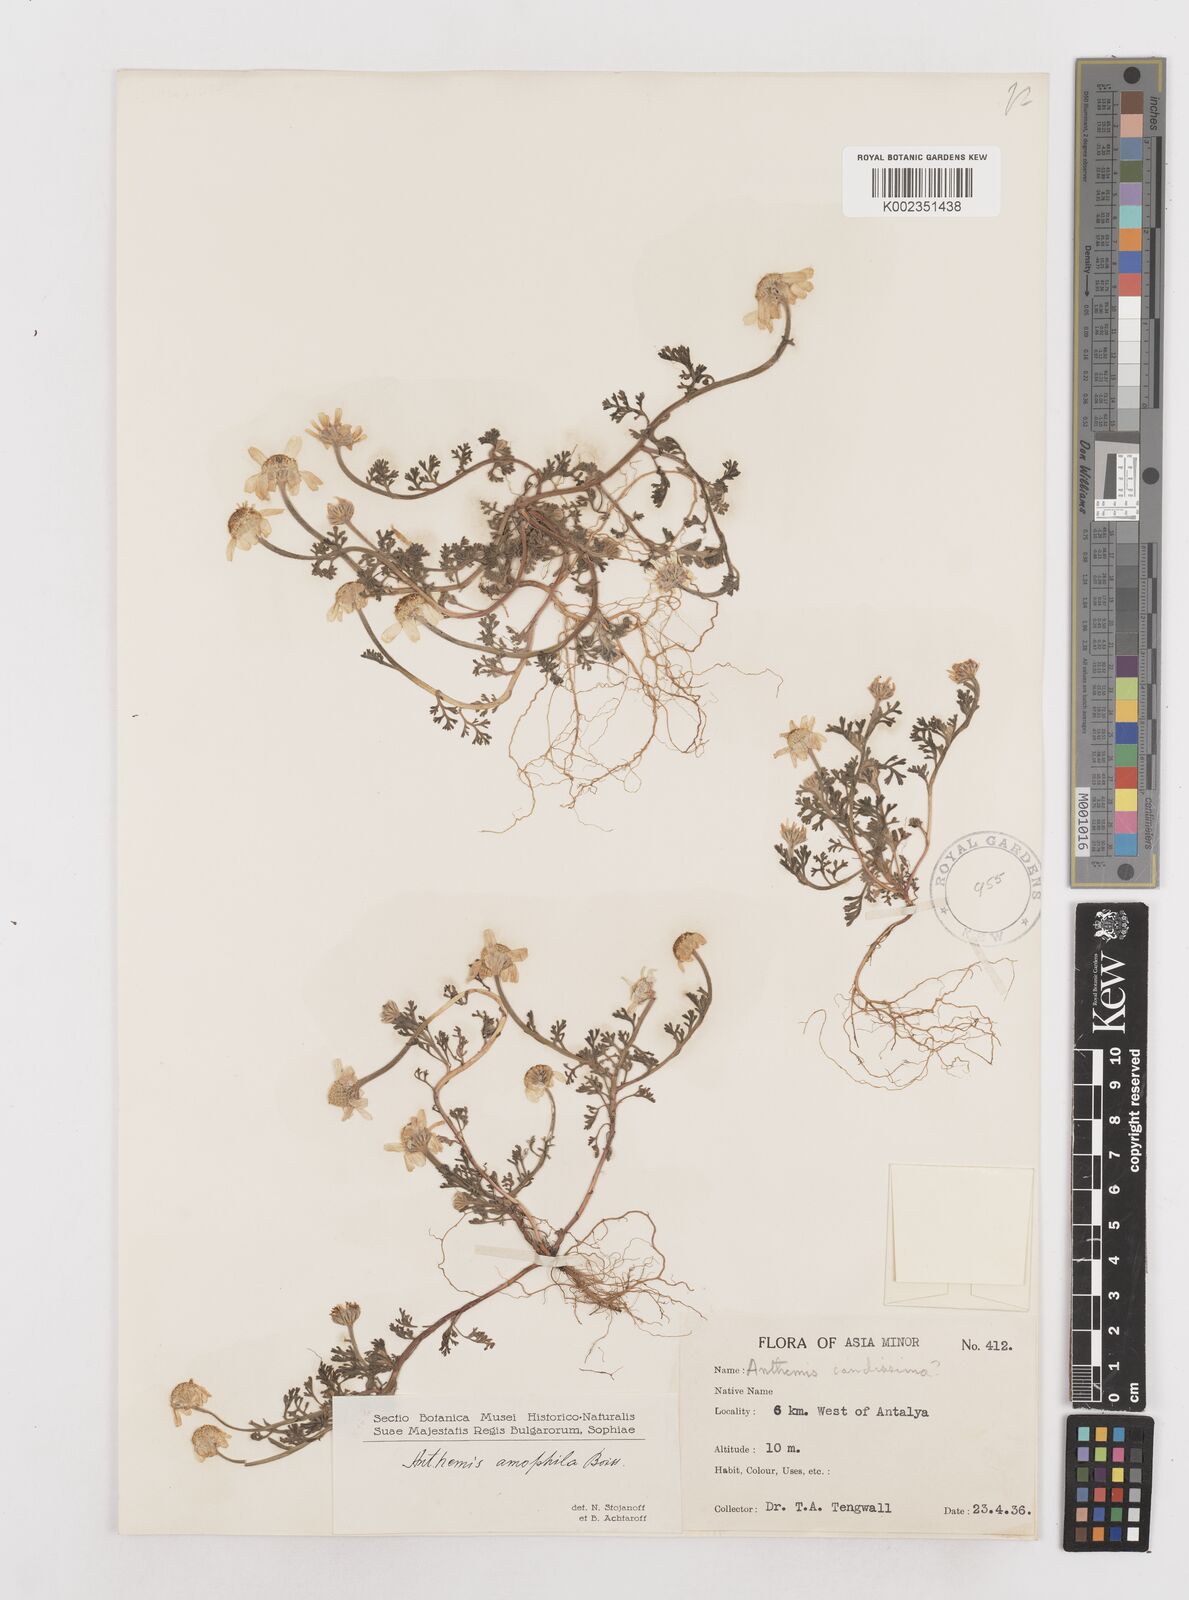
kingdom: Plantae
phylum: Tracheophyta
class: Magnoliopsida
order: Asterales
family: Asteraceae
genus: Anthemis
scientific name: Anthemis ammophila
